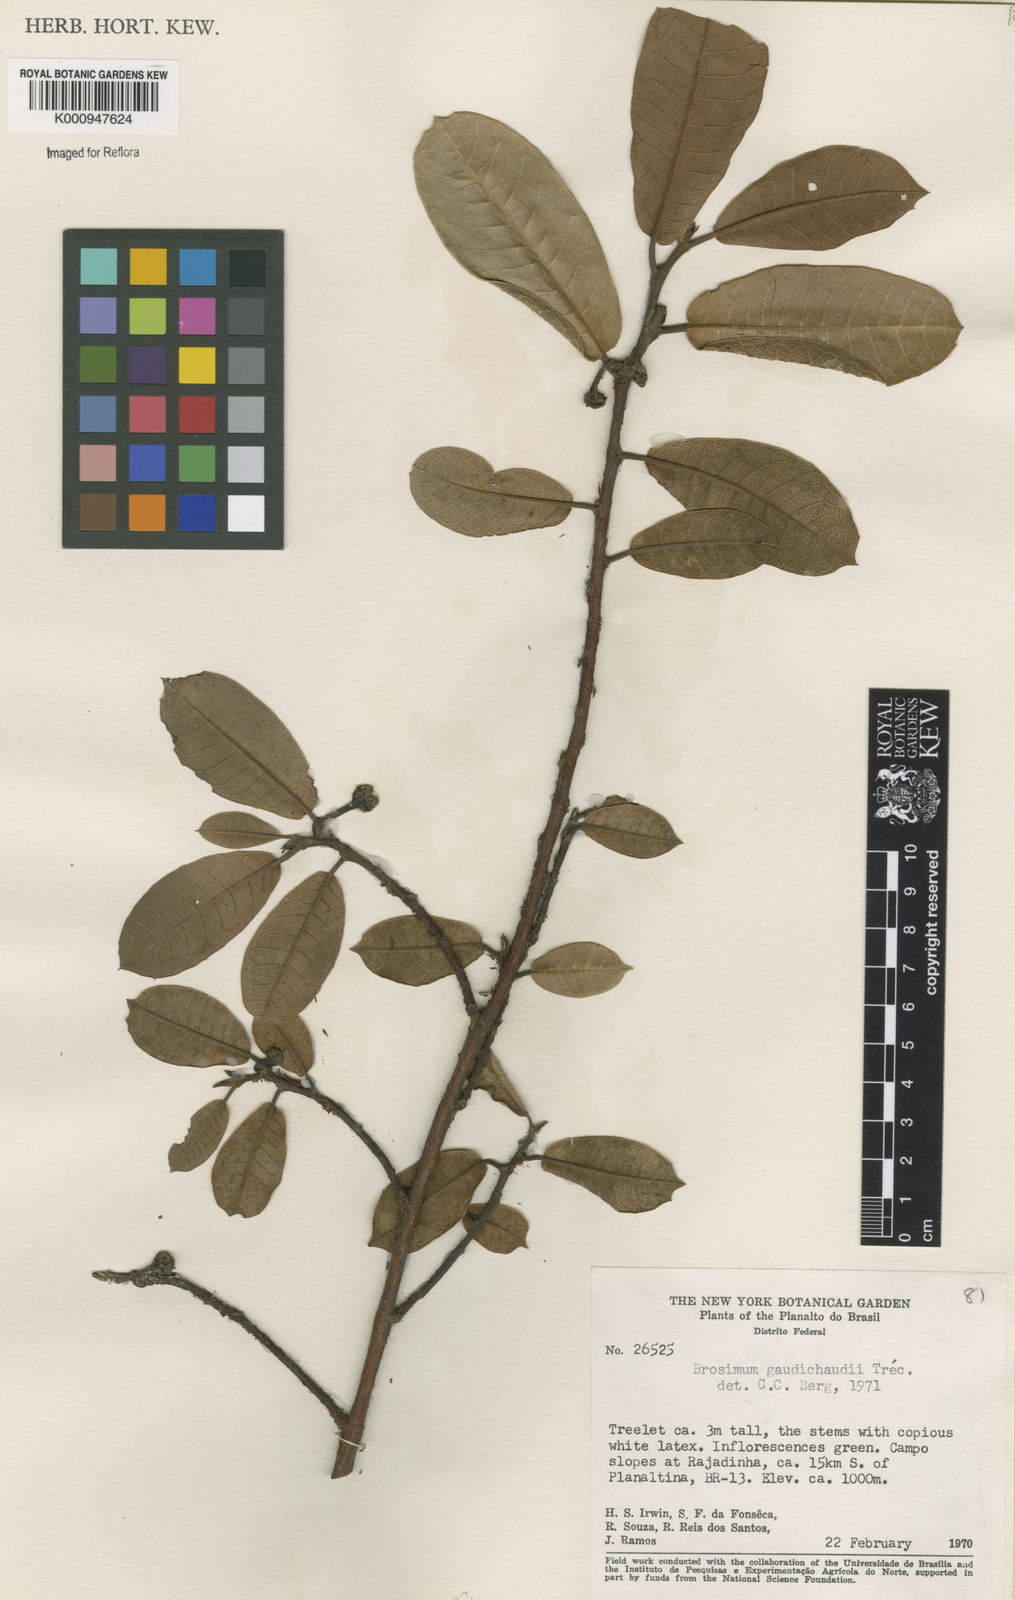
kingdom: Plantae
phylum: Tracheophyta
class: Magnoliopsida
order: Rosales
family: Moraceae
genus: Brosimum
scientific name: Brosimum
